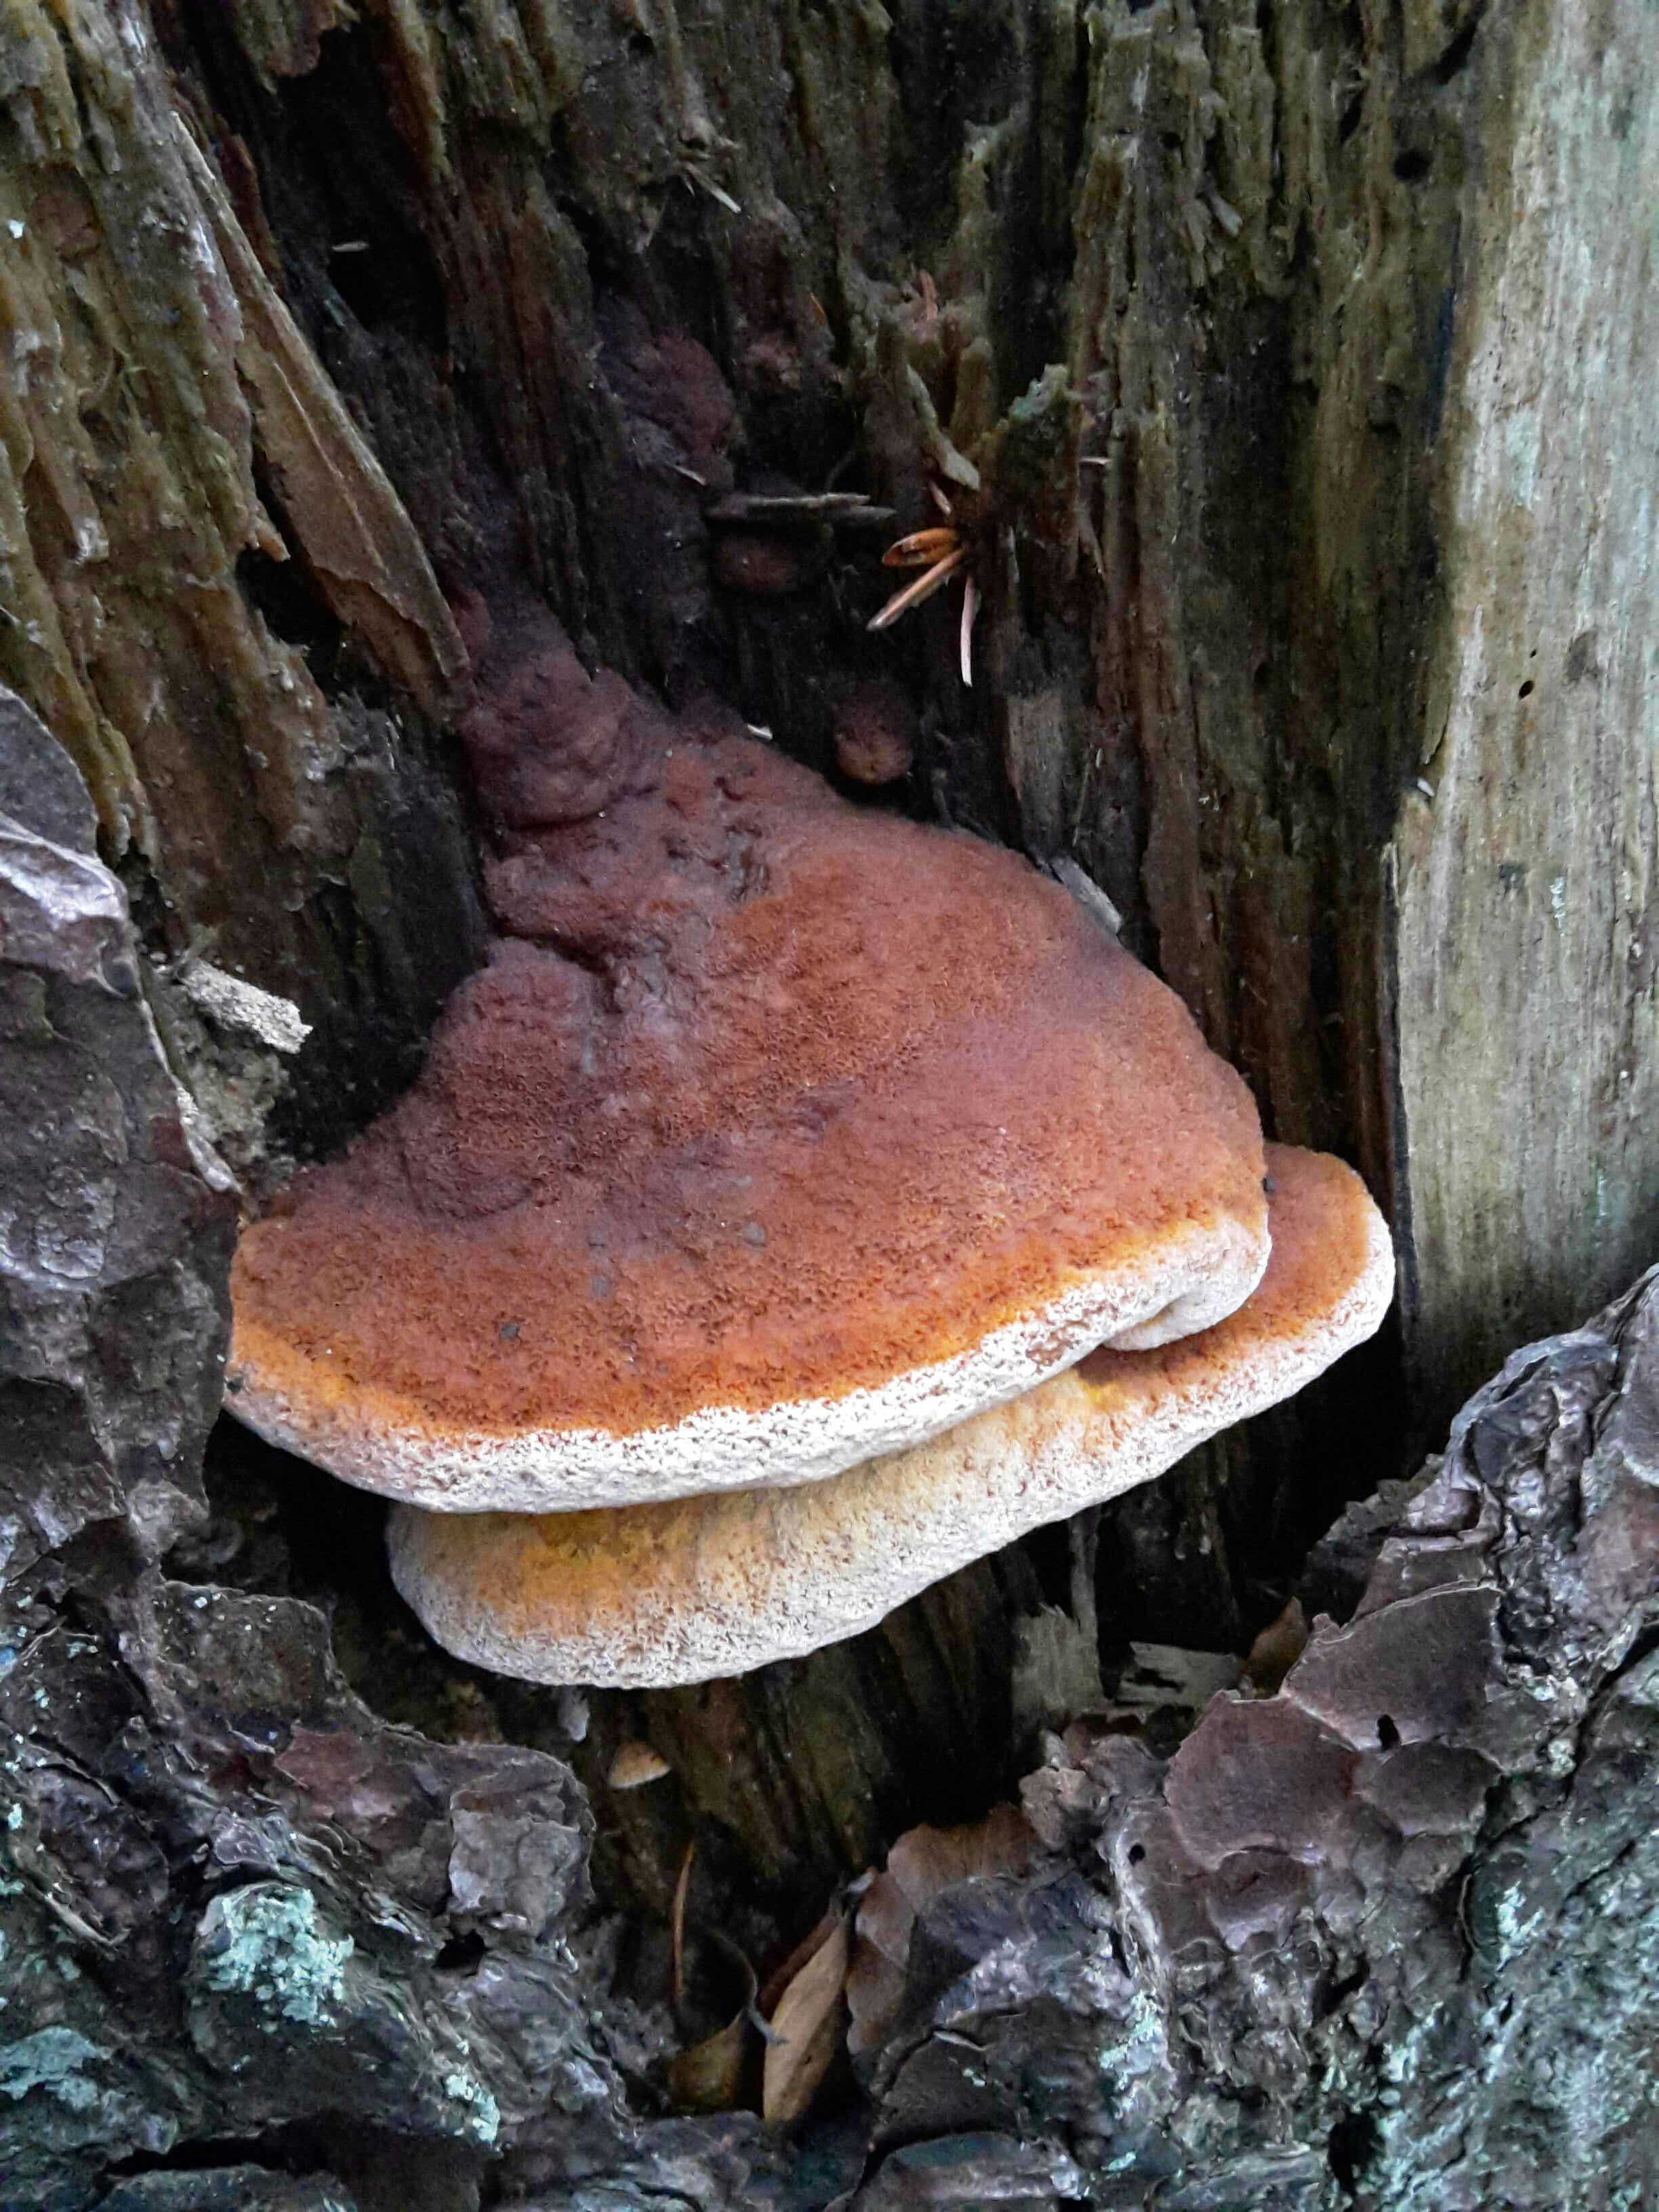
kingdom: Fungi
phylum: Basidiomycota
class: Agaricomycetes
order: Gloeophyllales
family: Gloeophyllaceae
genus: Gloeophyllum
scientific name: Gloeophyllum odoratum
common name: duftende korkhat
